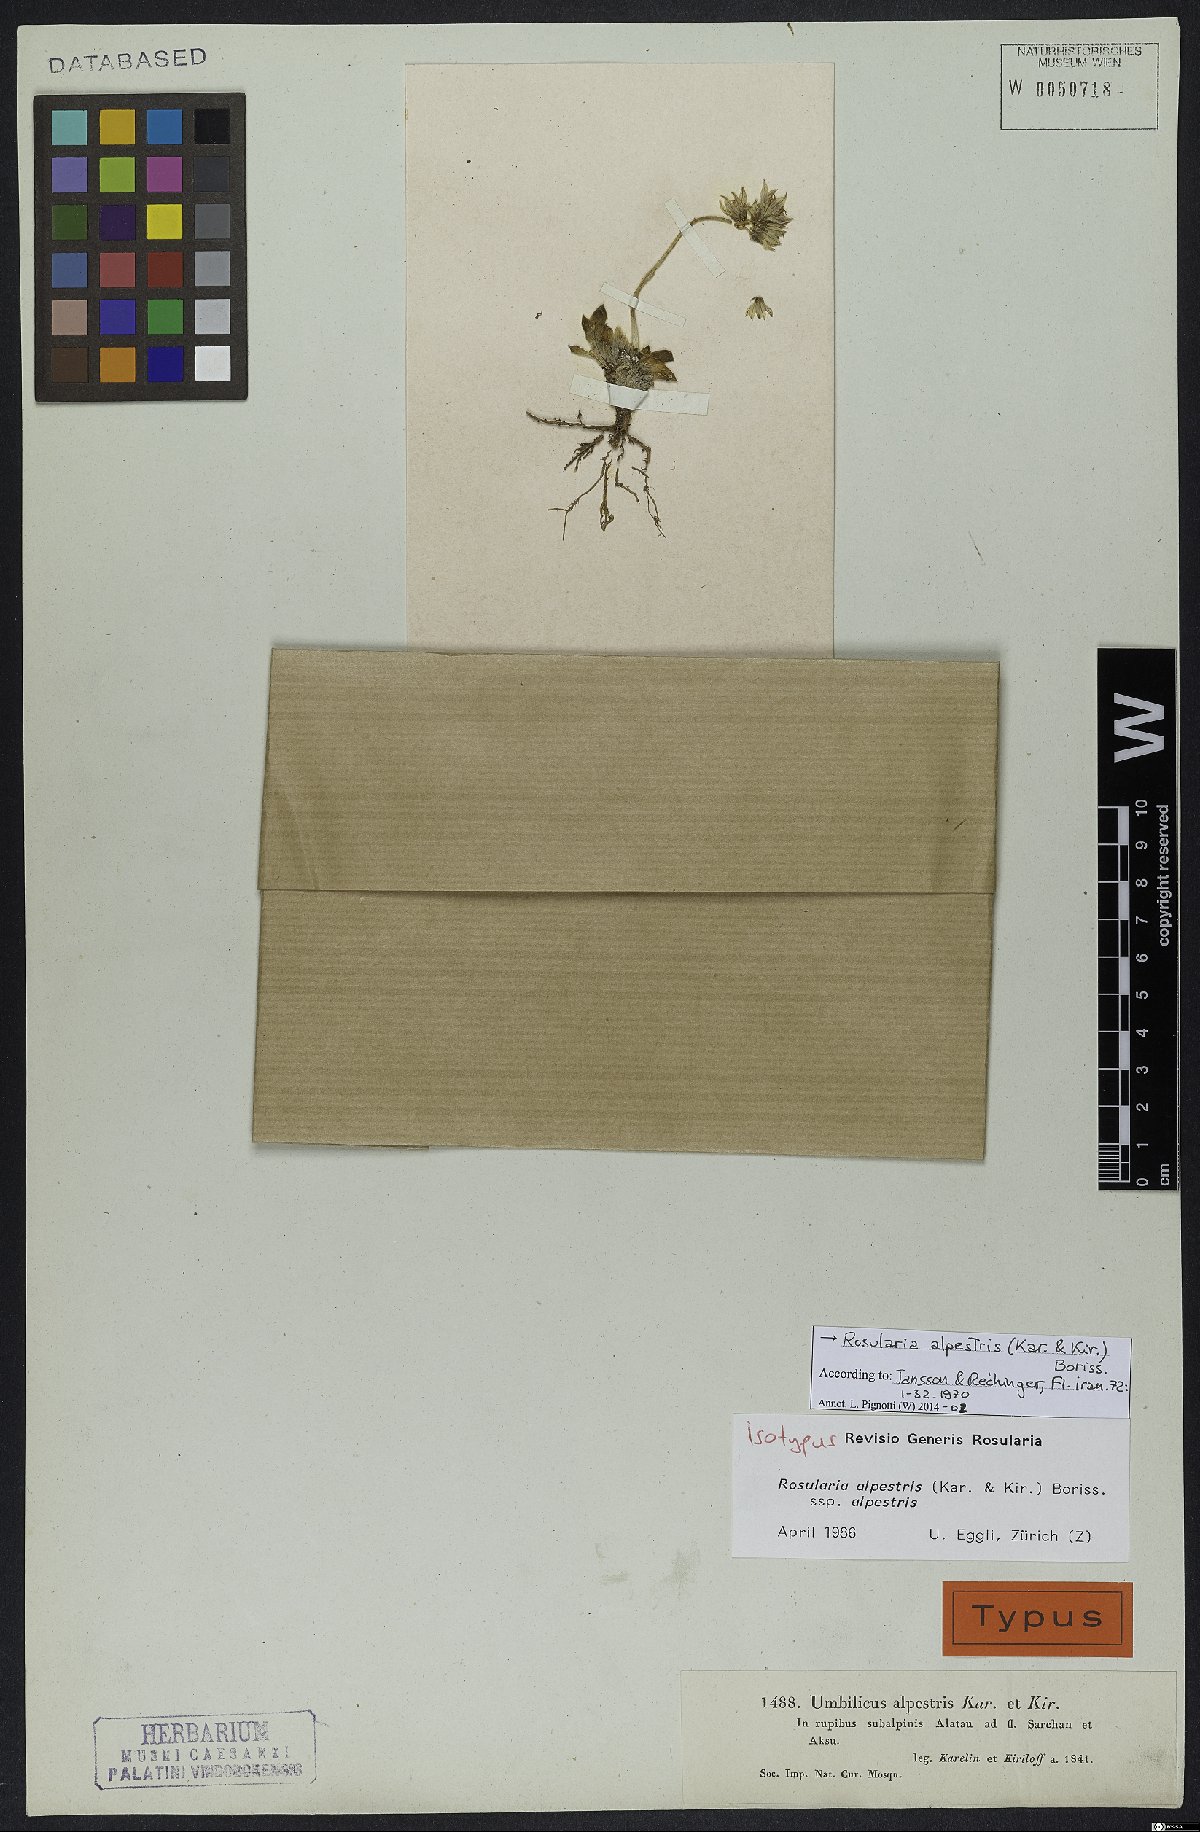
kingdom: Plantae
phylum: Tracheophyta
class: Magnoliopsida
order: Saxifragales
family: Crassulaceae
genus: Rosularia
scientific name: Rosularia alpestris
